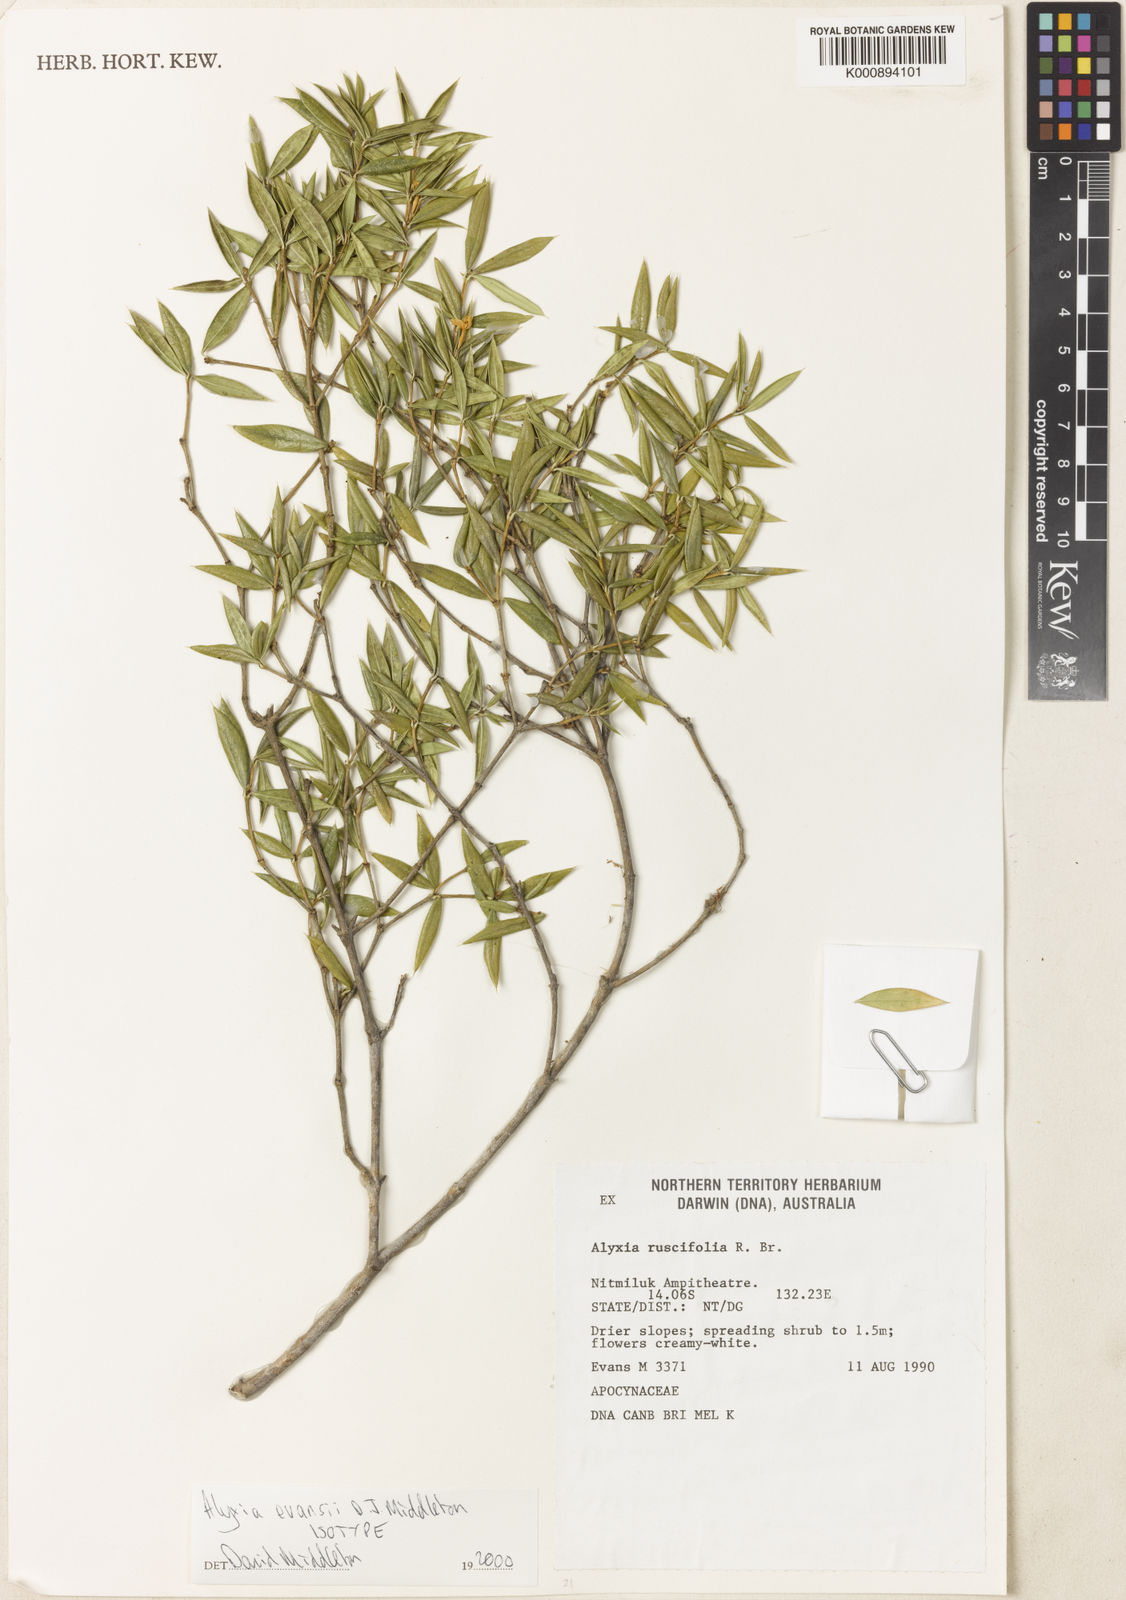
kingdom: Plantae
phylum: Tracheophyta
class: Magnoliopsida
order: Gentianales
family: Apocynaceae
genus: Alyxia
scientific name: Alyxia evansii
